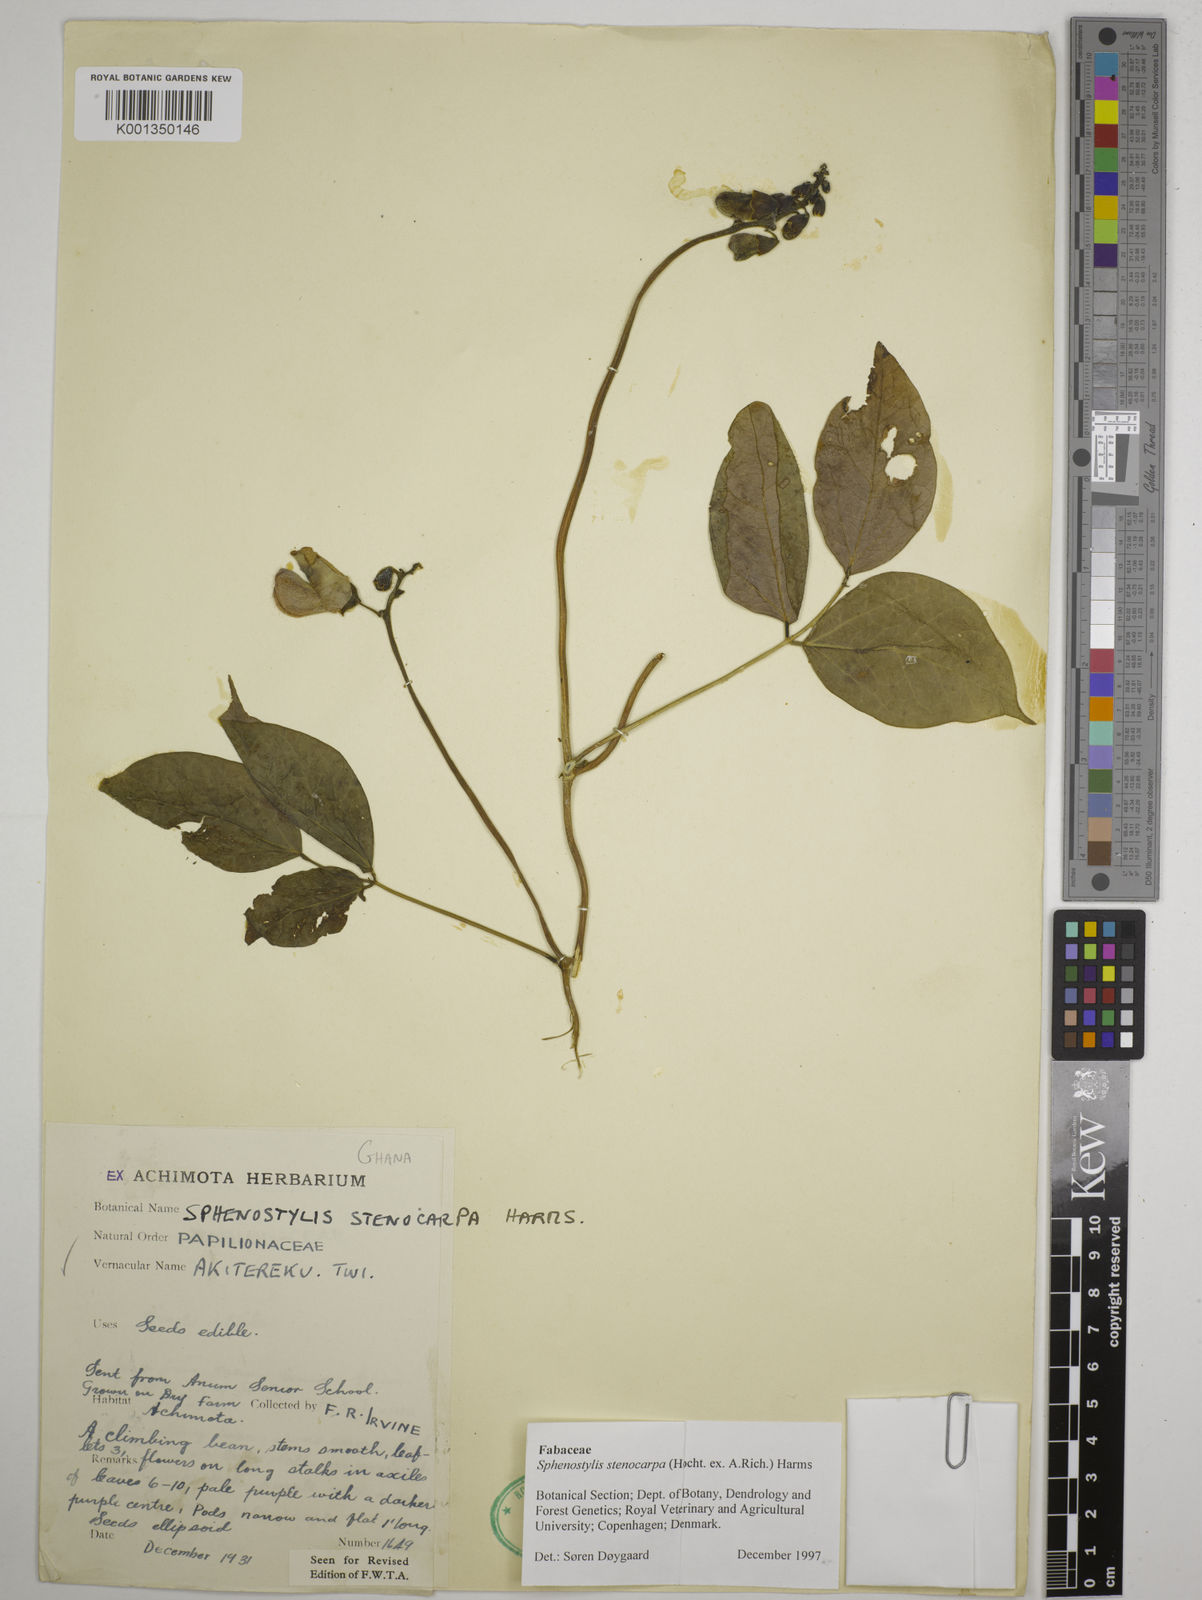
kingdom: Plantae
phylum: Tracheophyta
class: Magnoliopsida
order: Fabales
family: Fabaceae
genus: Sphenostylis
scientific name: Sphenostylis stenocarpa
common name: Yam-pea
